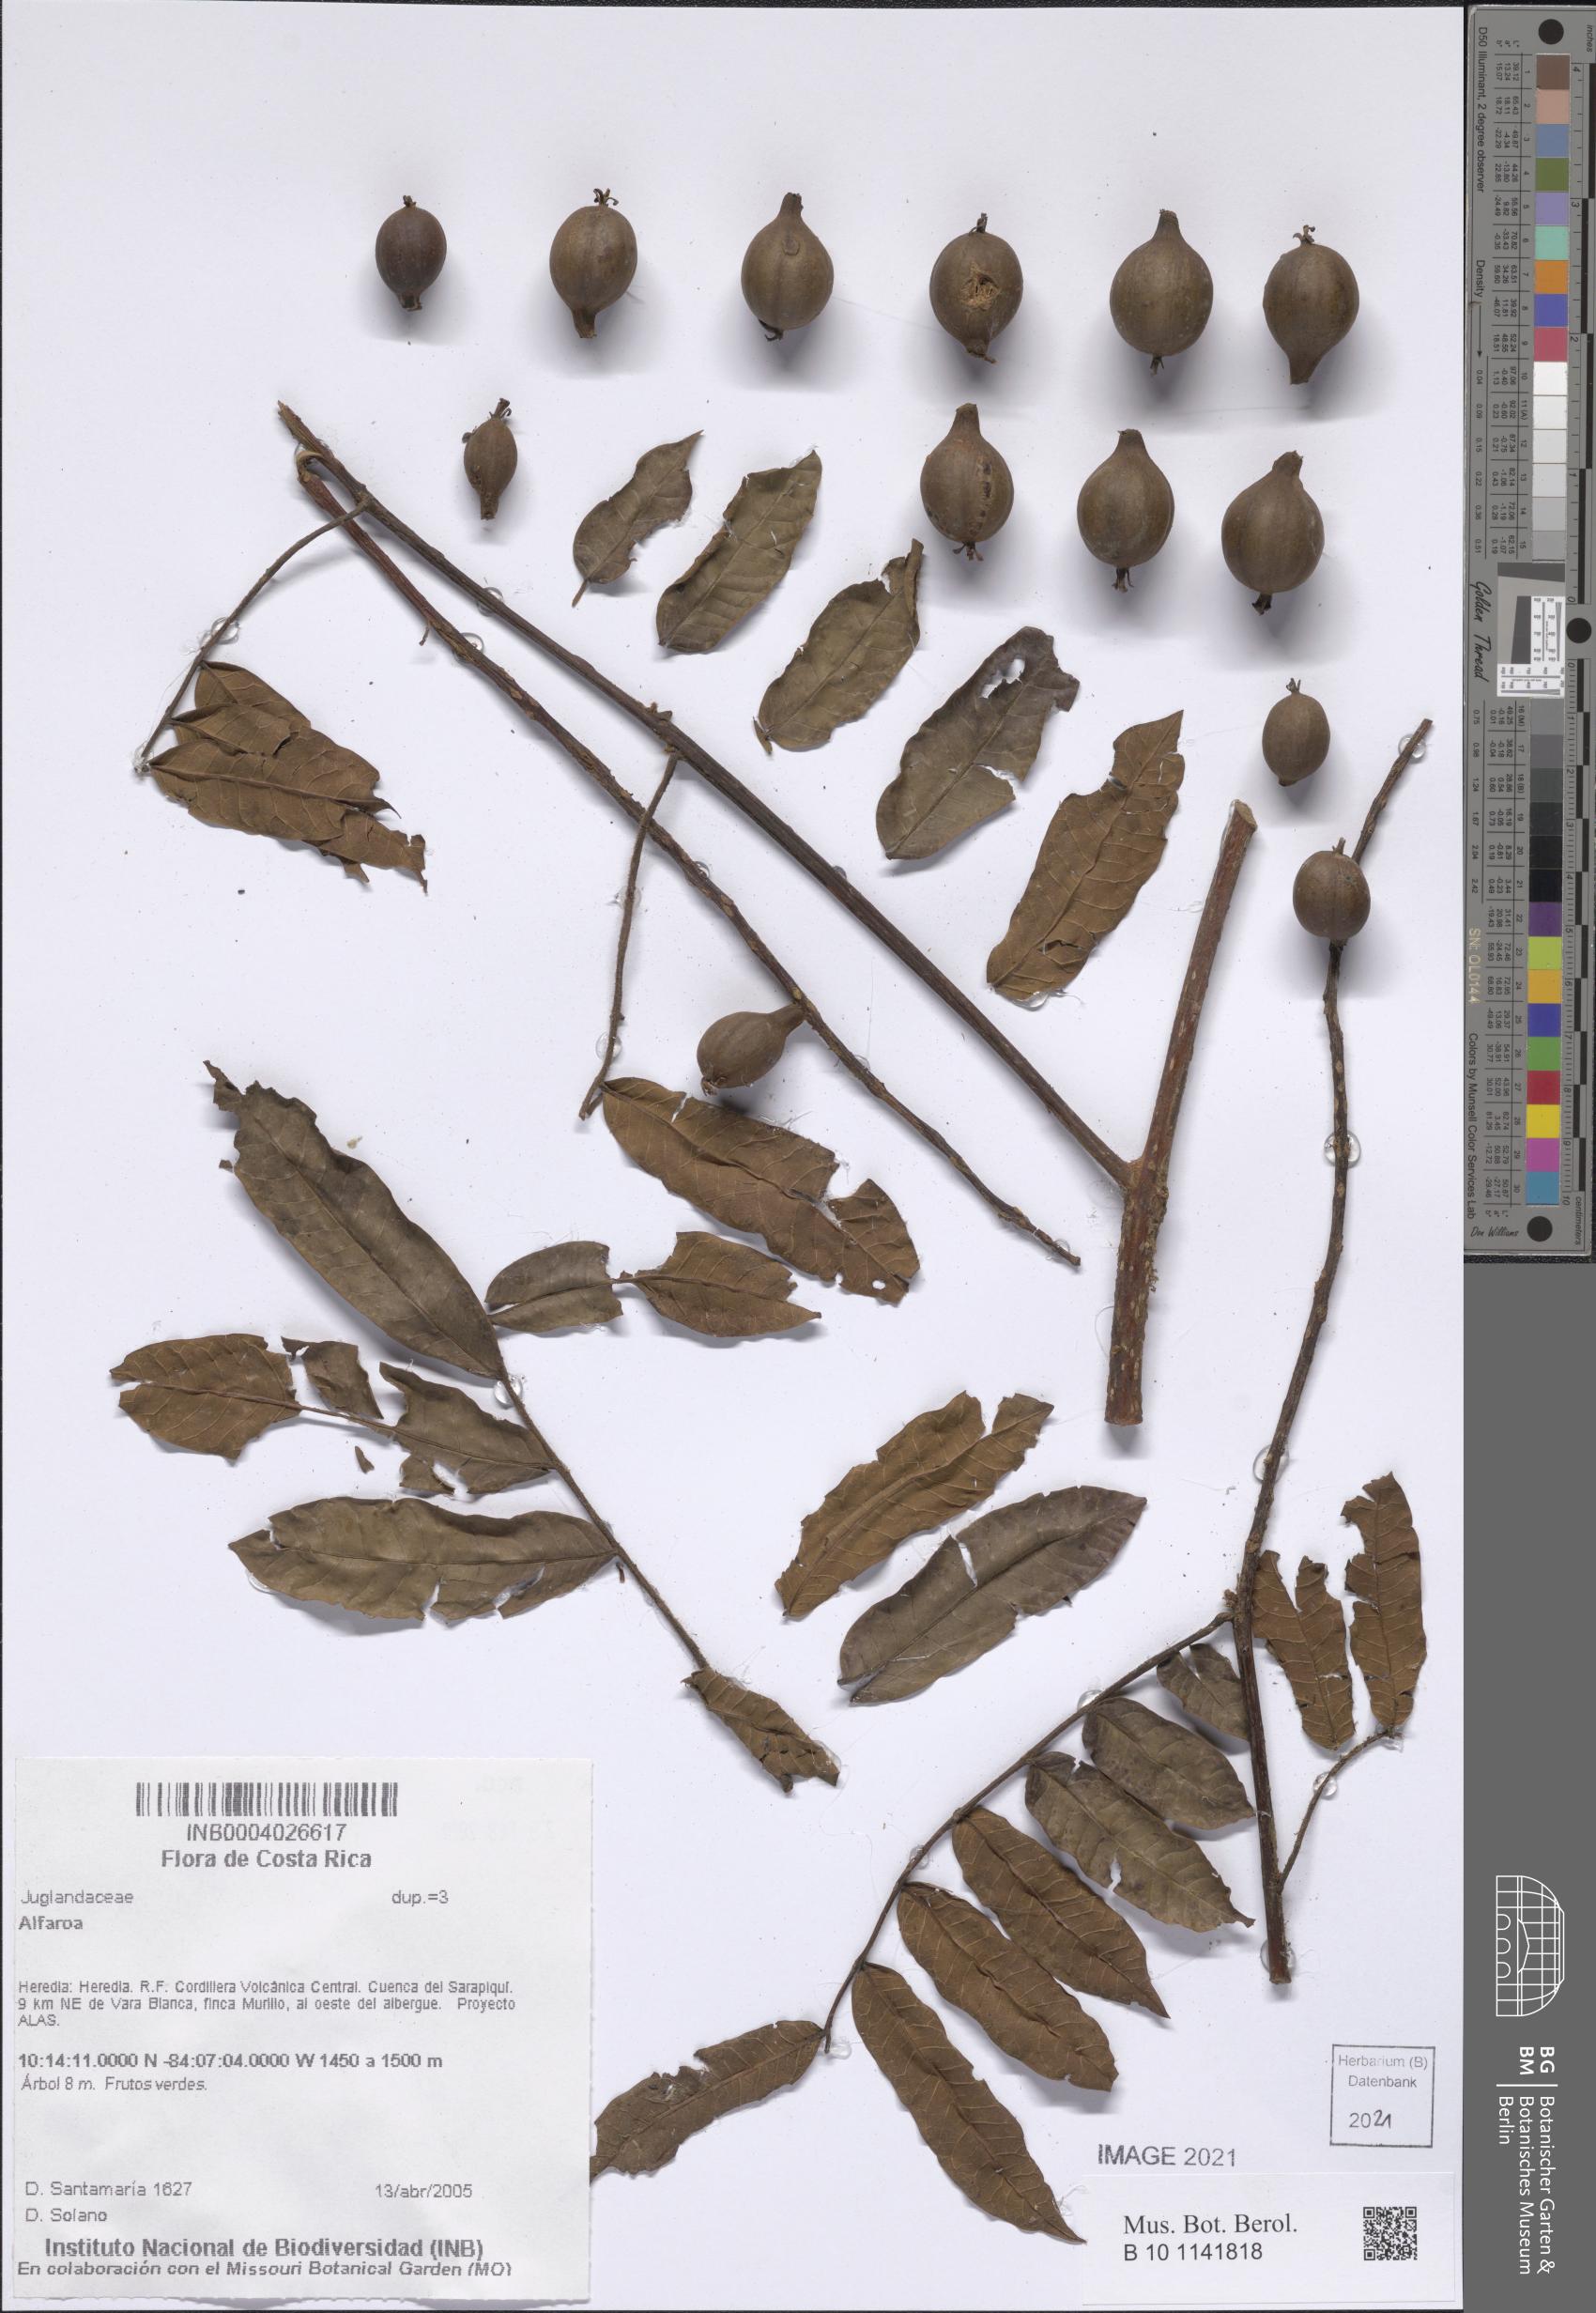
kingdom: Plantae
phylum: Tracheophyta
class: Magnoliopsida
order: Fagales
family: Juglandaceae
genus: Alfaroa
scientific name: Alfaroa
